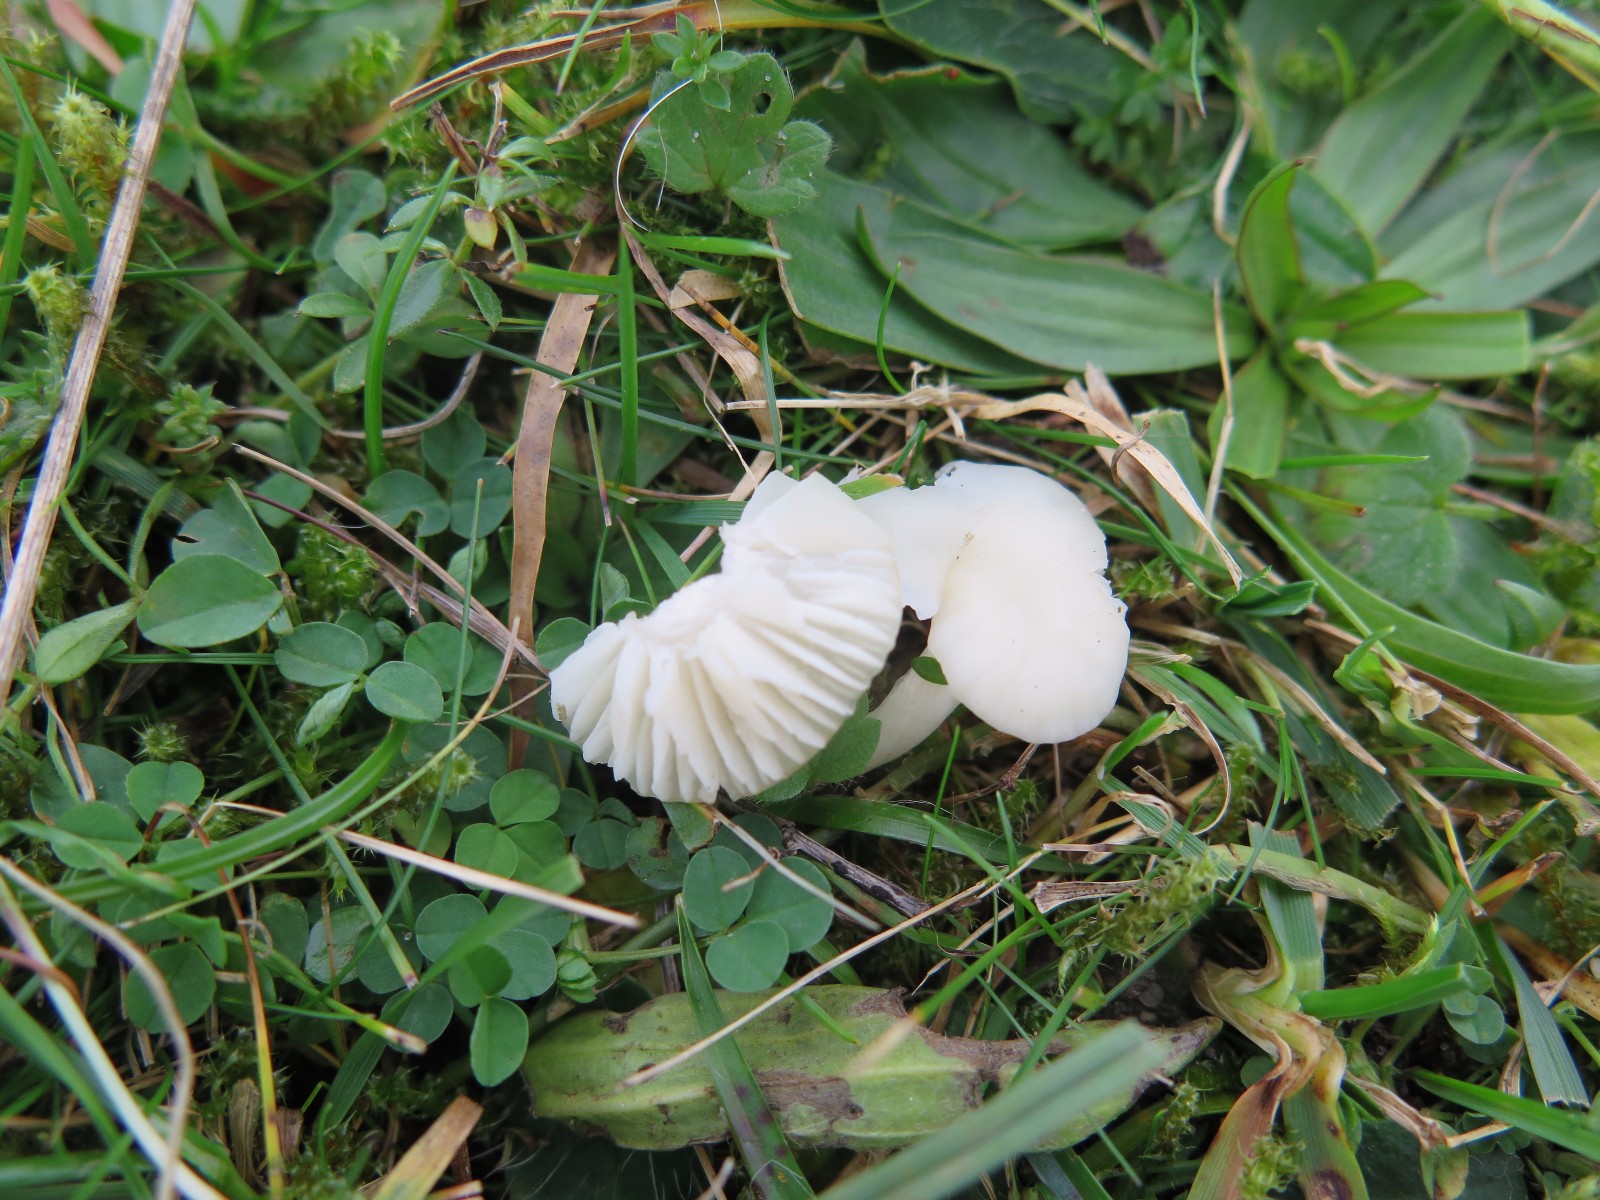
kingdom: Fungi
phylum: Basidiomycota
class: Agaricomycetes
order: Agaricales
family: Hygrophoraceae
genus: Cuphophyllus
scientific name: Cuphophyllus virgineus
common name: snehvid vokshat
